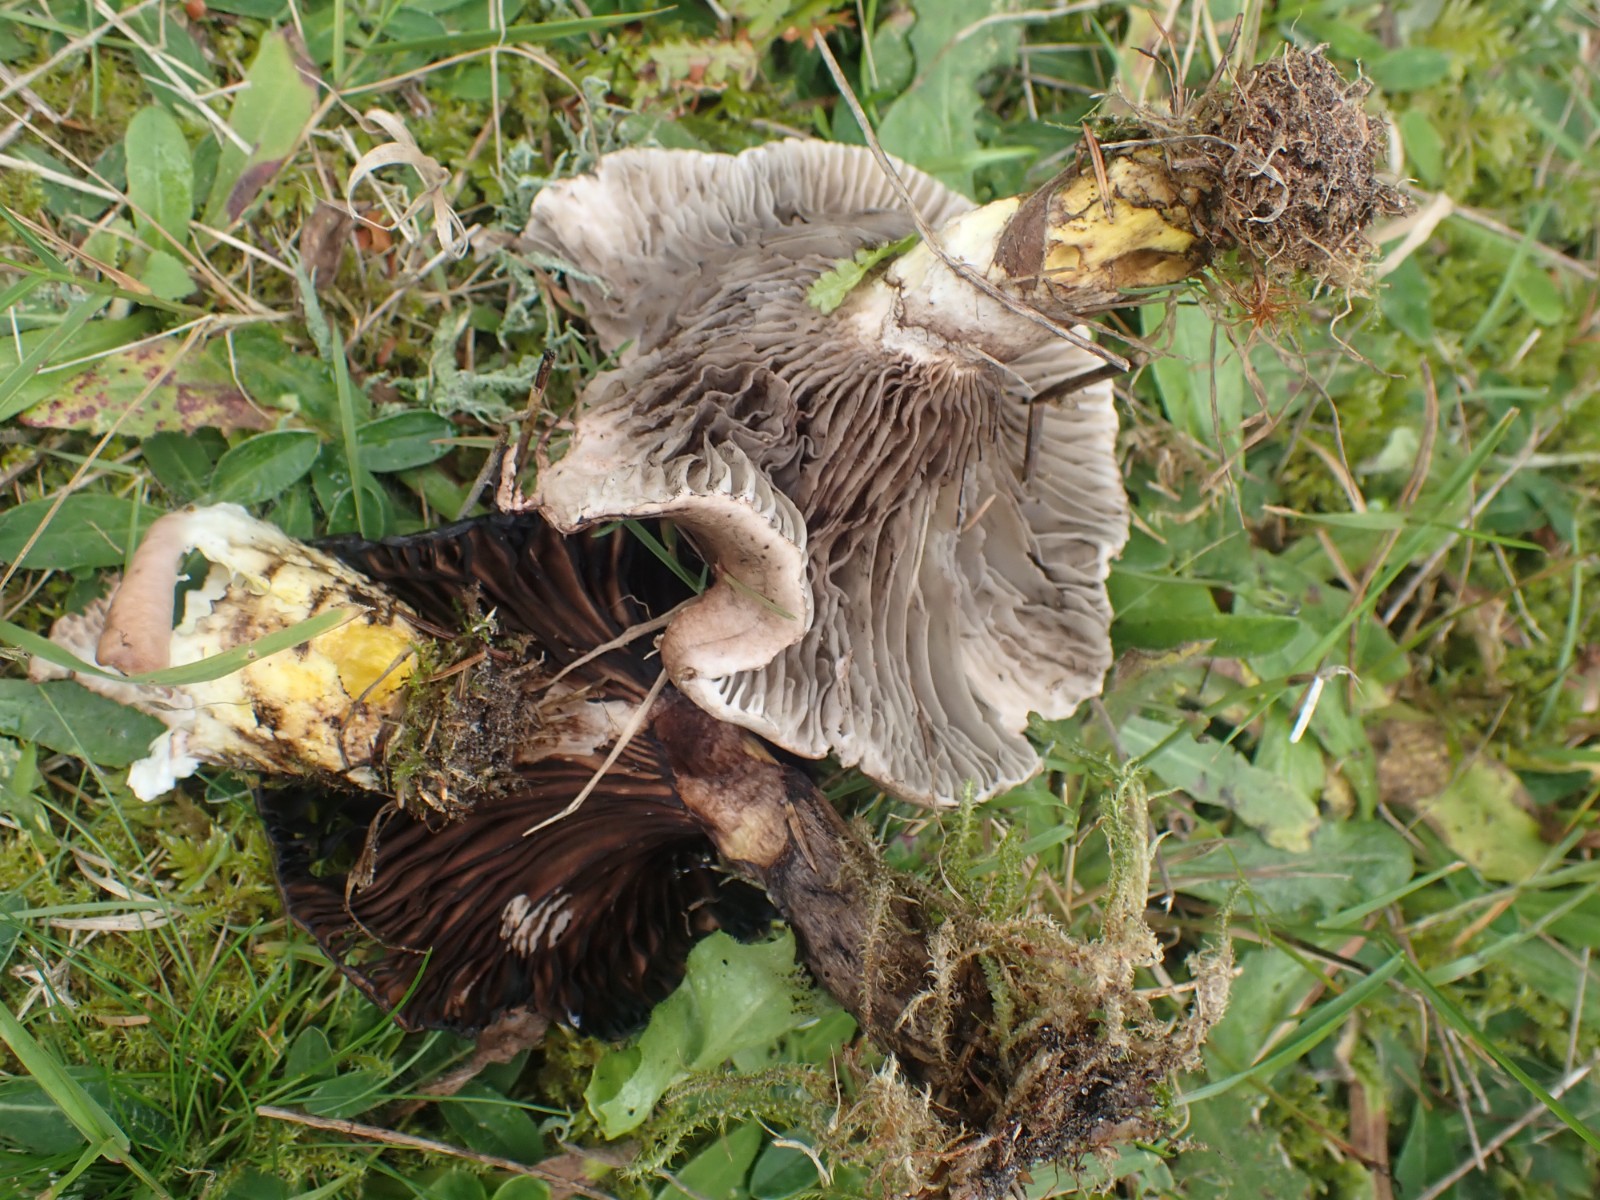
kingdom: Fungi
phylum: Basidiomycota
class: Agaricomycetes
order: Boletales
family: Gomphidiaceae
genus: Gomphidius
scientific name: Gomphidius glutinosus
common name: grå slimslør
